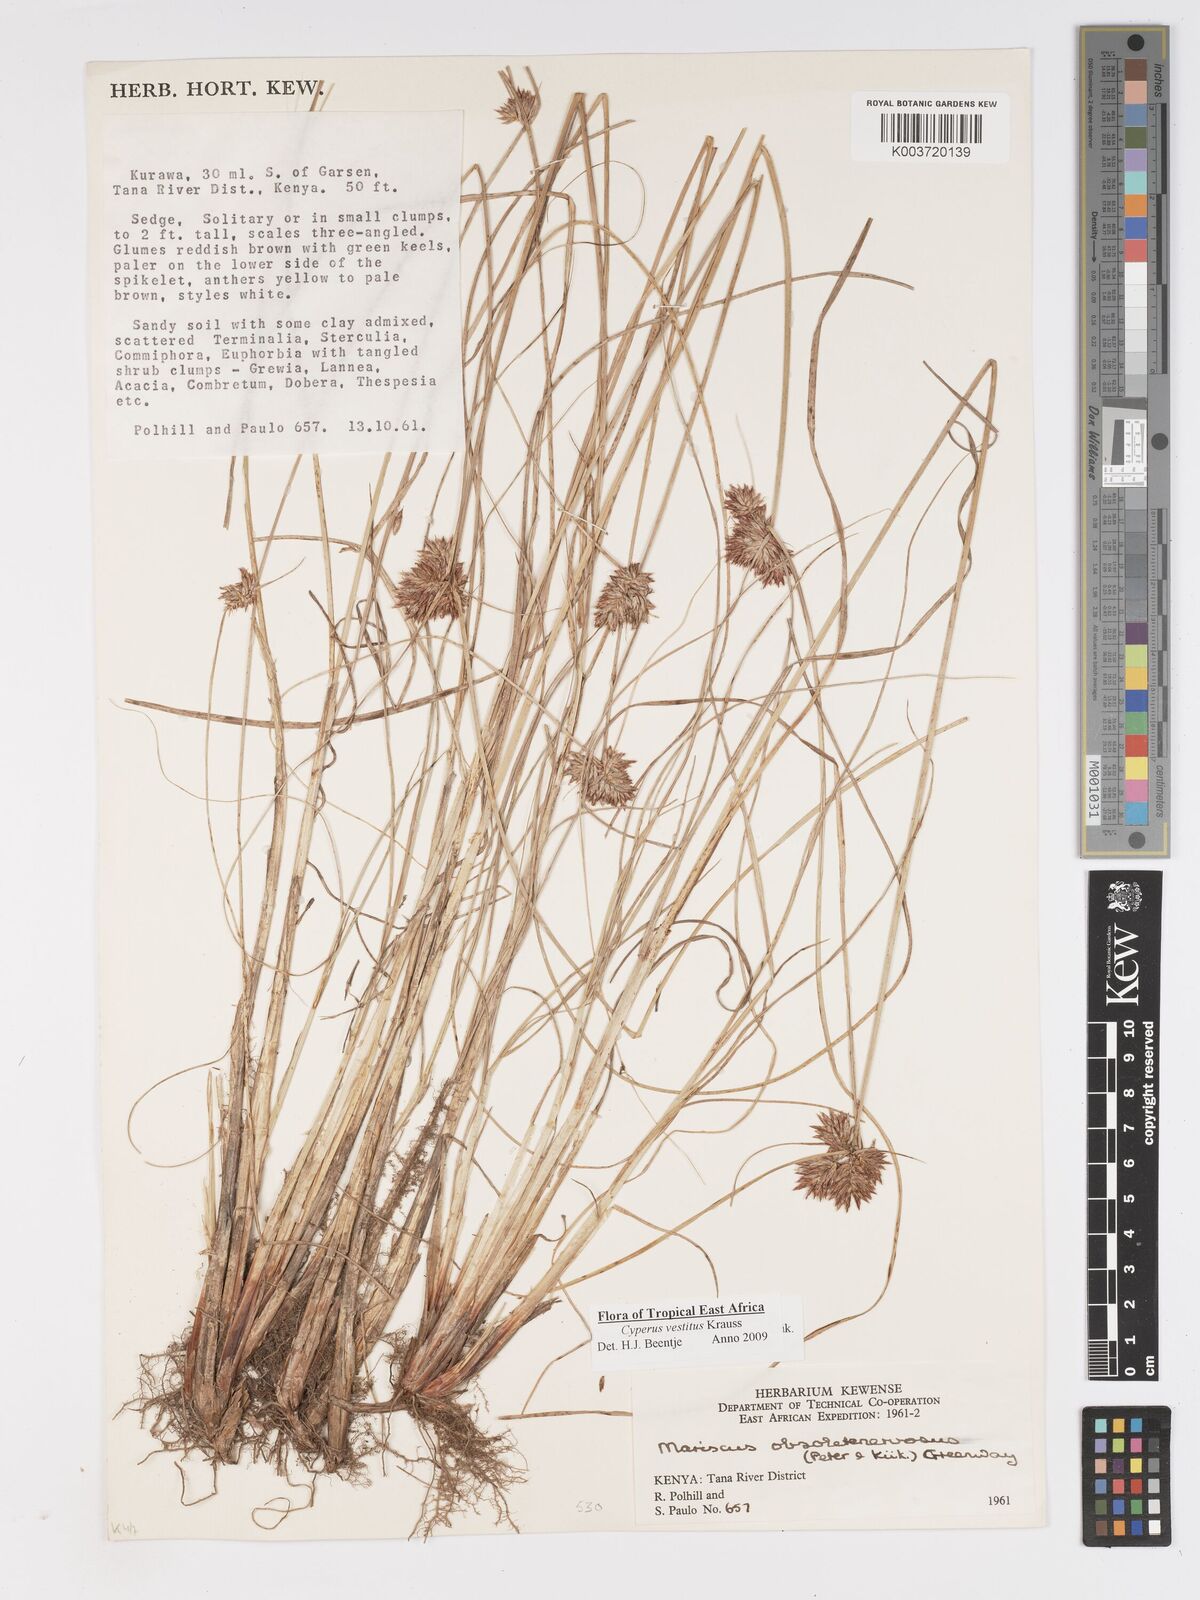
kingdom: Plantae
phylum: Tracheophyta
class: Liliopsida
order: Poales
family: Cyperaceae
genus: Cyperus
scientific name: Cyperus vestitus
